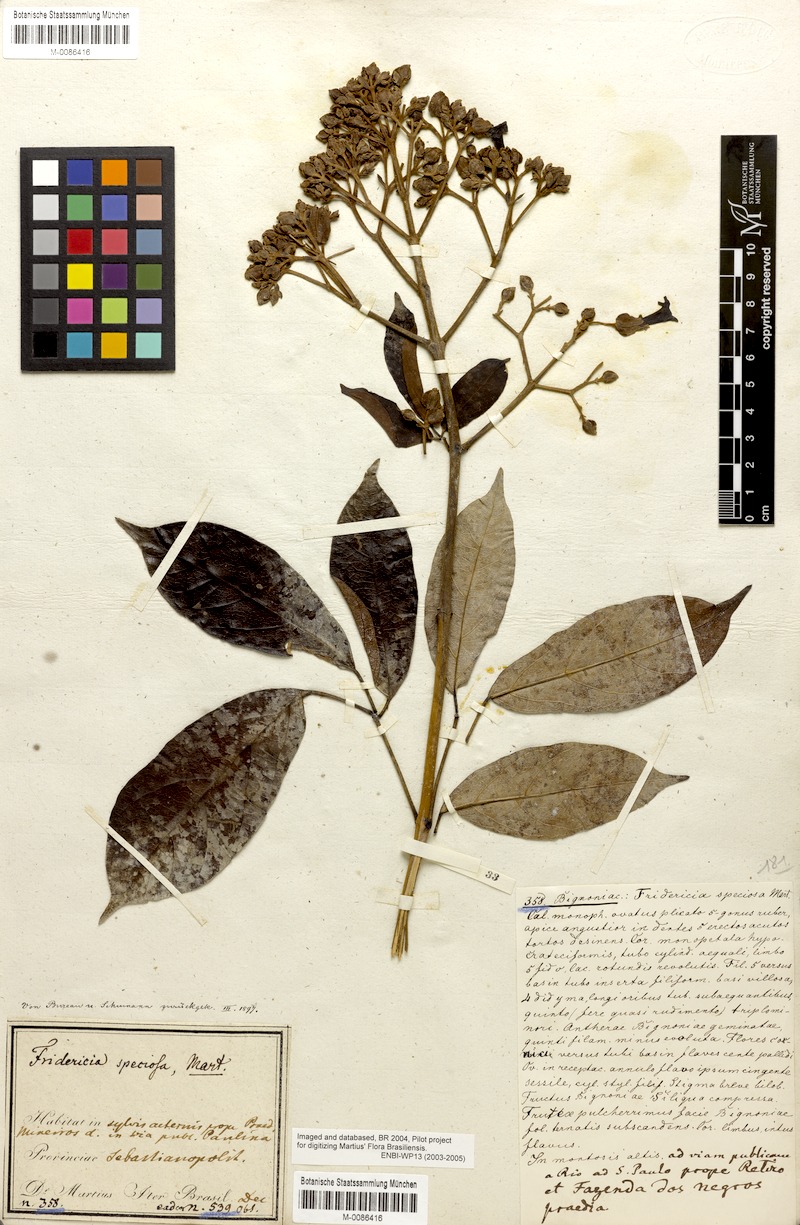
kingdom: Plantae
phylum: Tracheophyta
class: Magnoliopsida
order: Lamiales
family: Bignoniaceae
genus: Fridericia
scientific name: Fridericia speciosa
